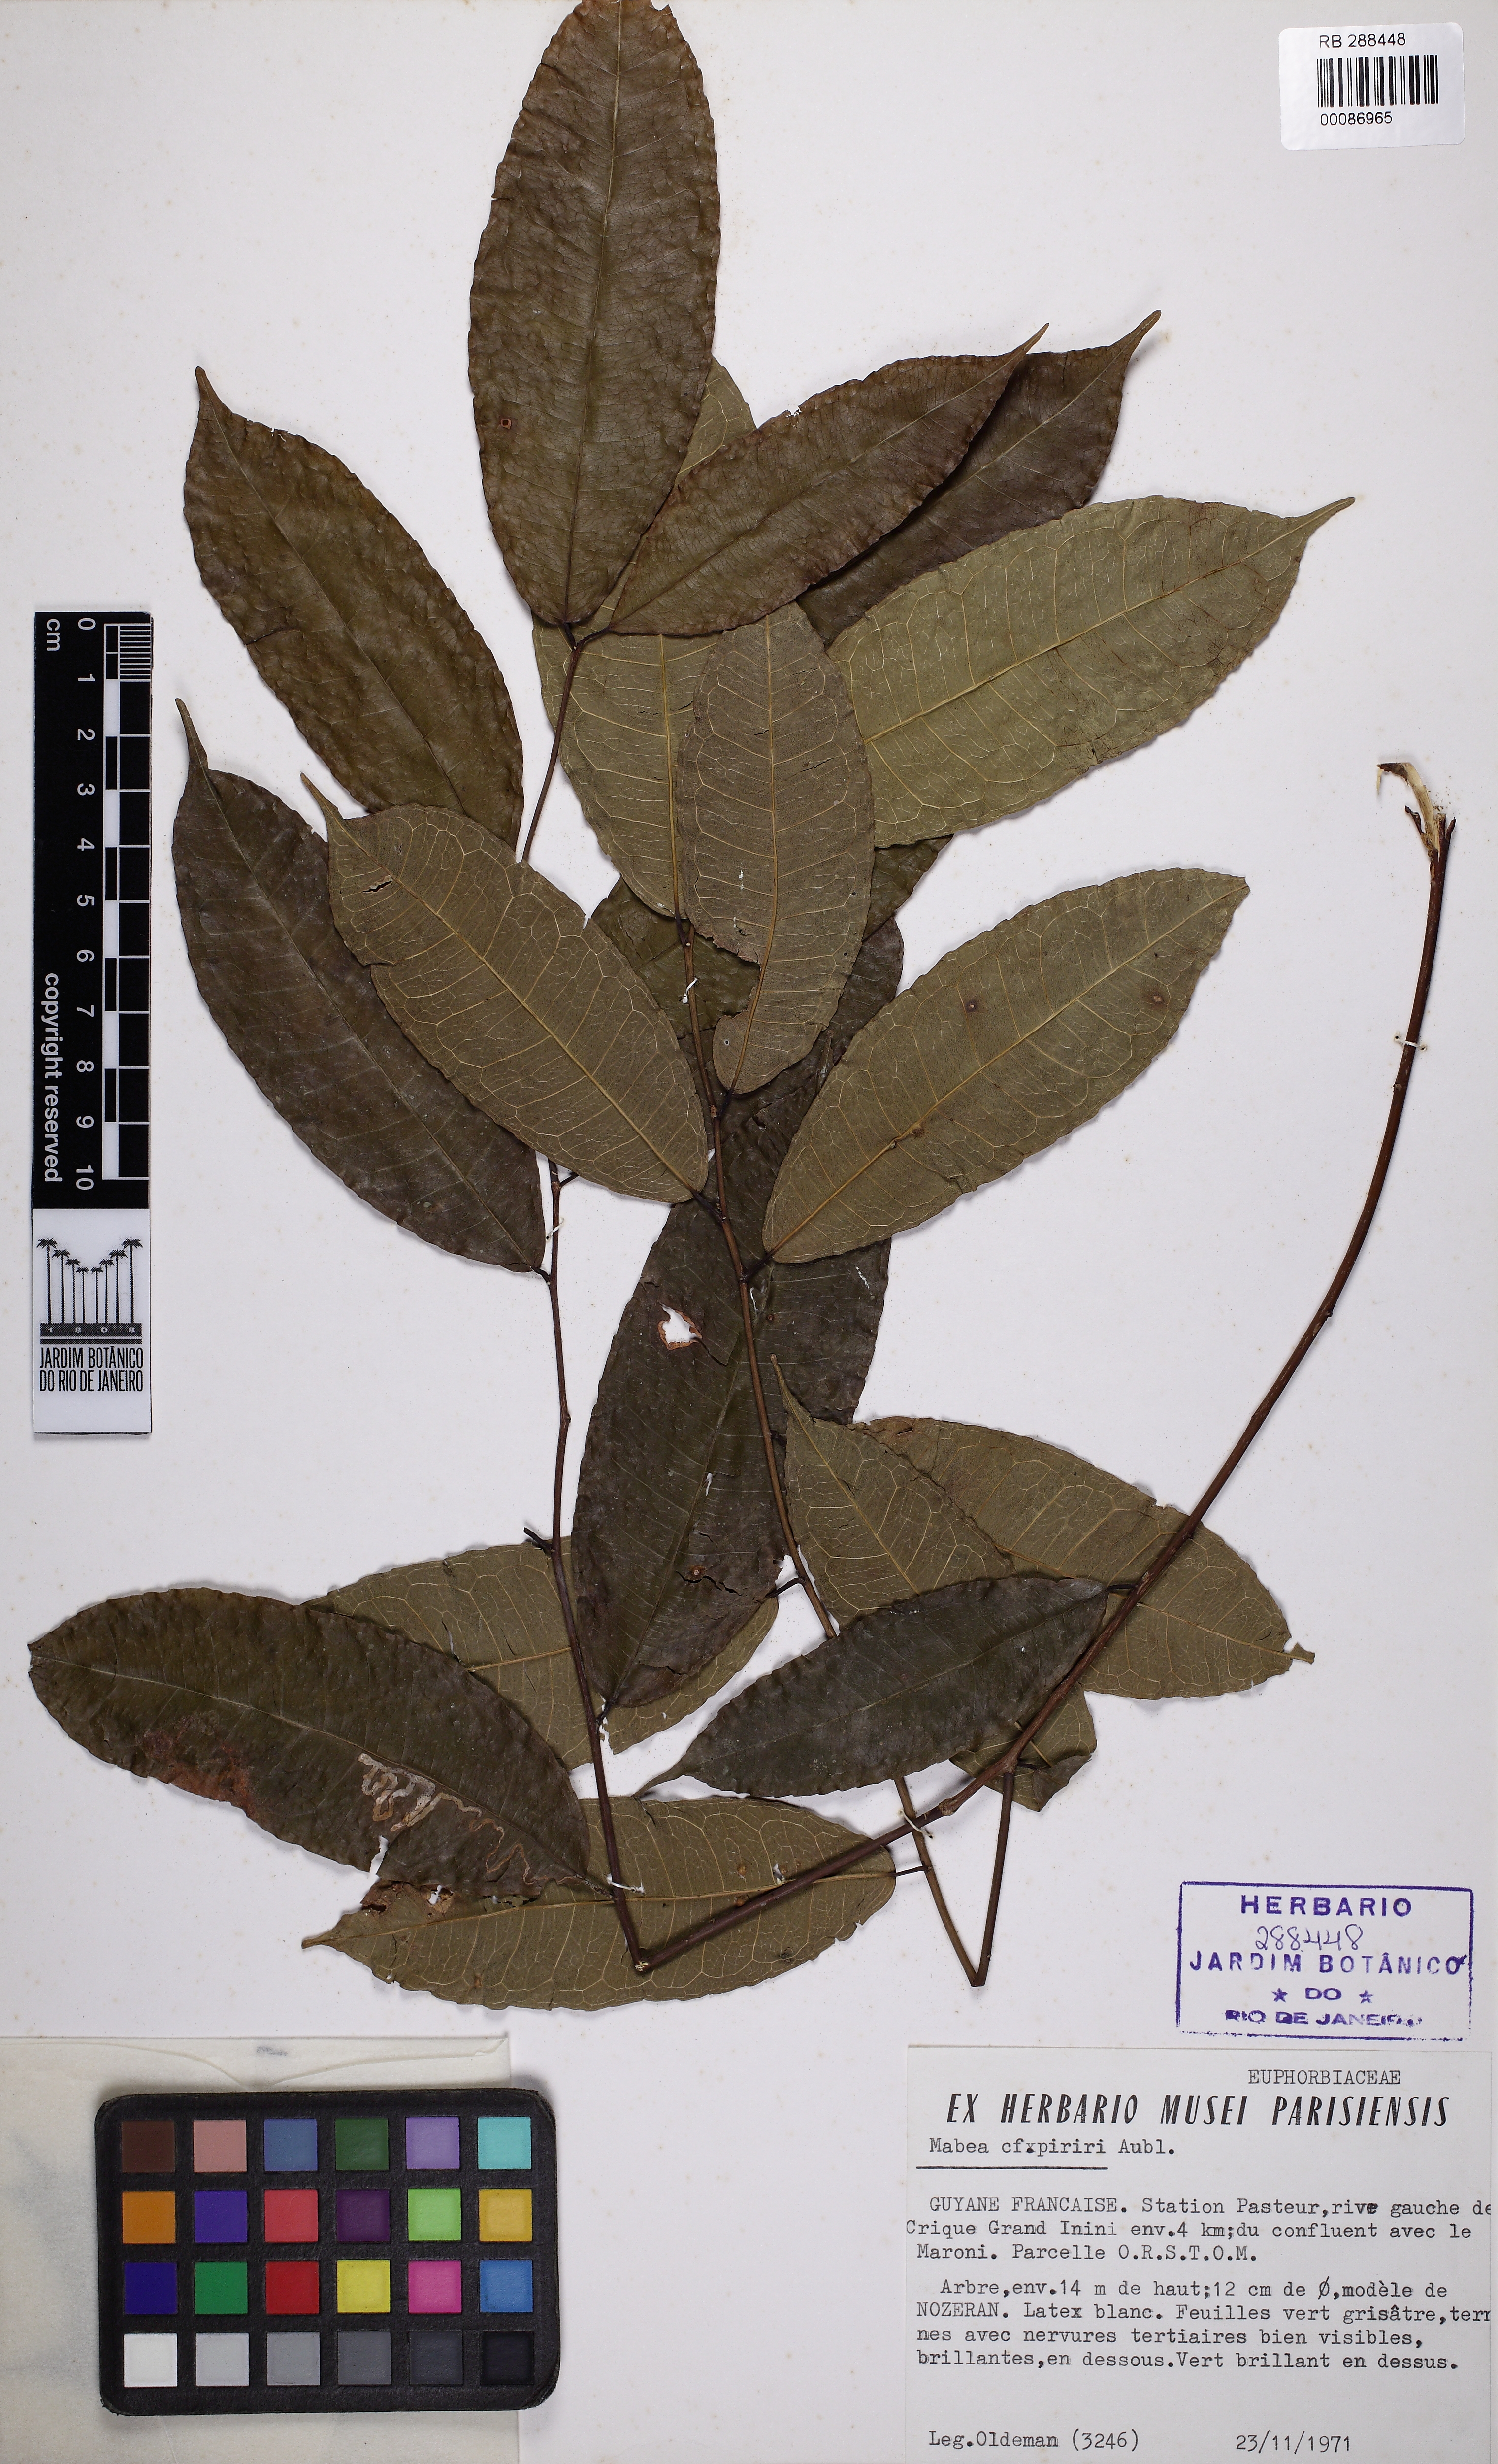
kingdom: Plantae
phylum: Tracheophyta
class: Magnoliopsida
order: Malpighiales
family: Euphorbiaceae
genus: Mabea
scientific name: Mabea piriri
